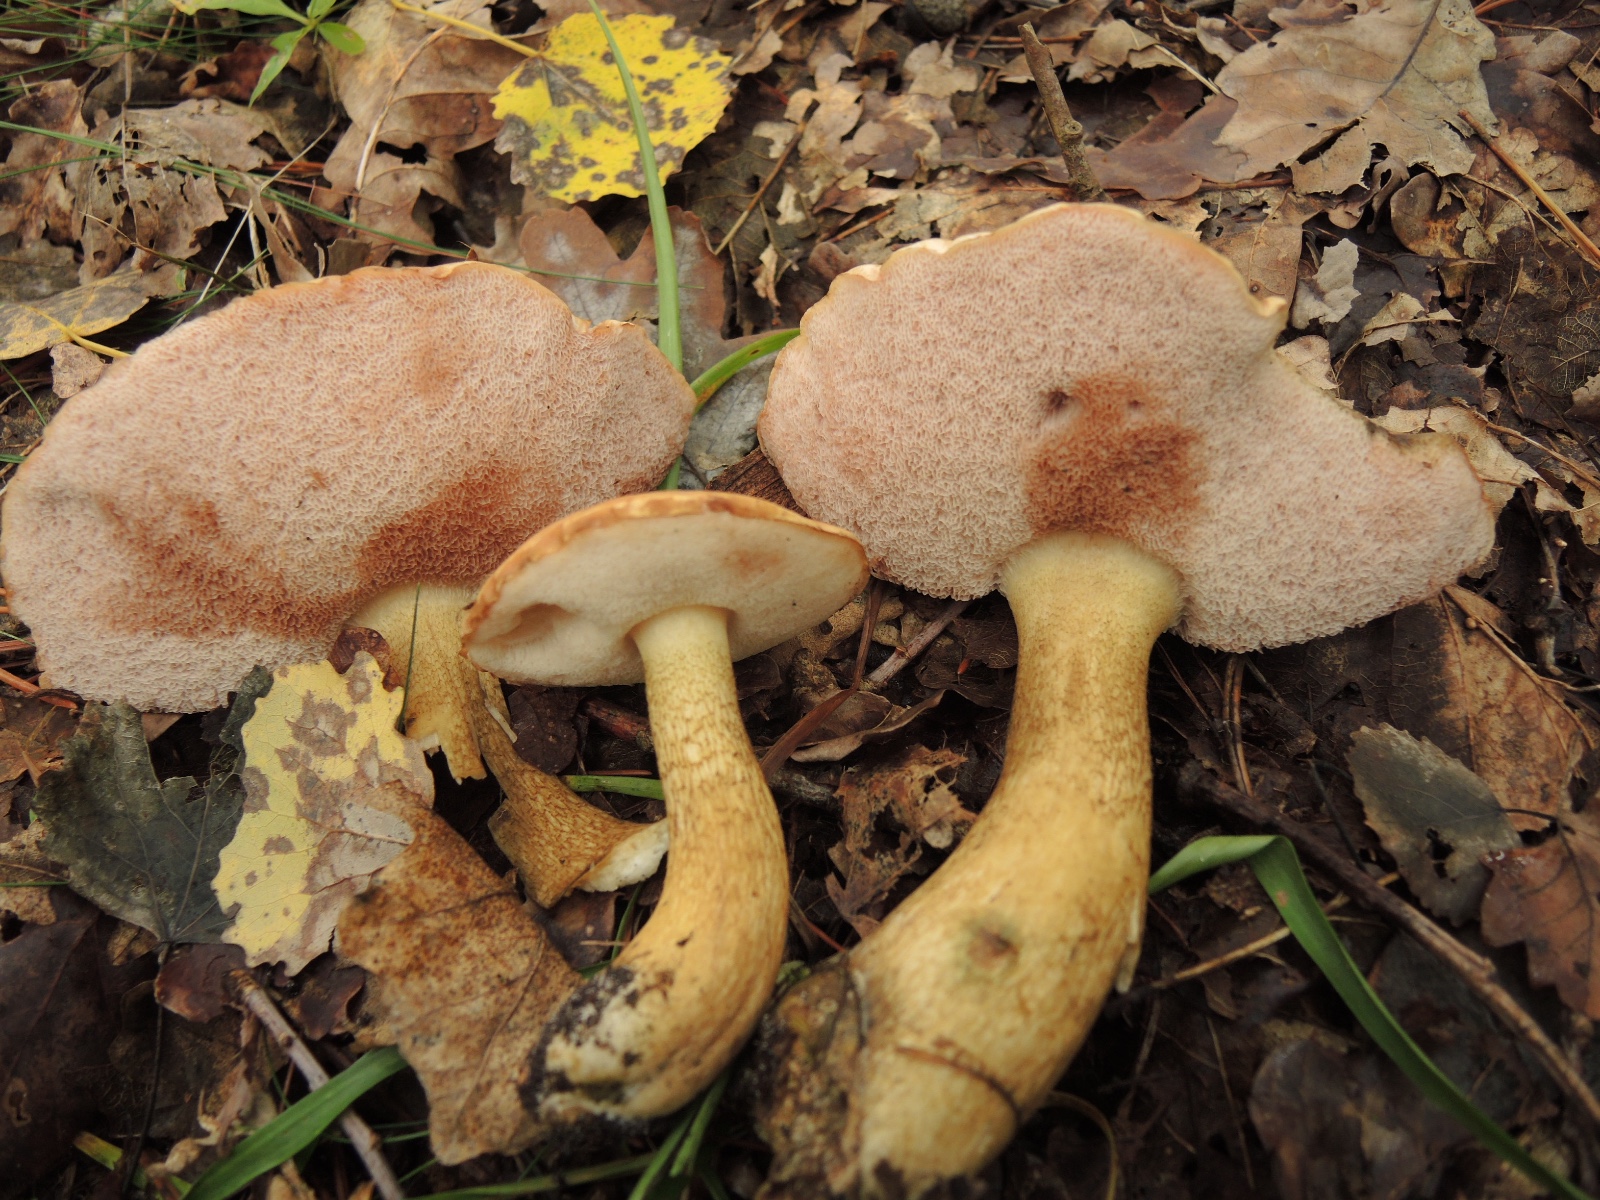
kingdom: Fungi
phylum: Basidiomycota
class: Agaricomycetes
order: Boletales
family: Boletaceae
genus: Tylopilus
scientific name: Tylopilus felleus
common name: galderørhat
